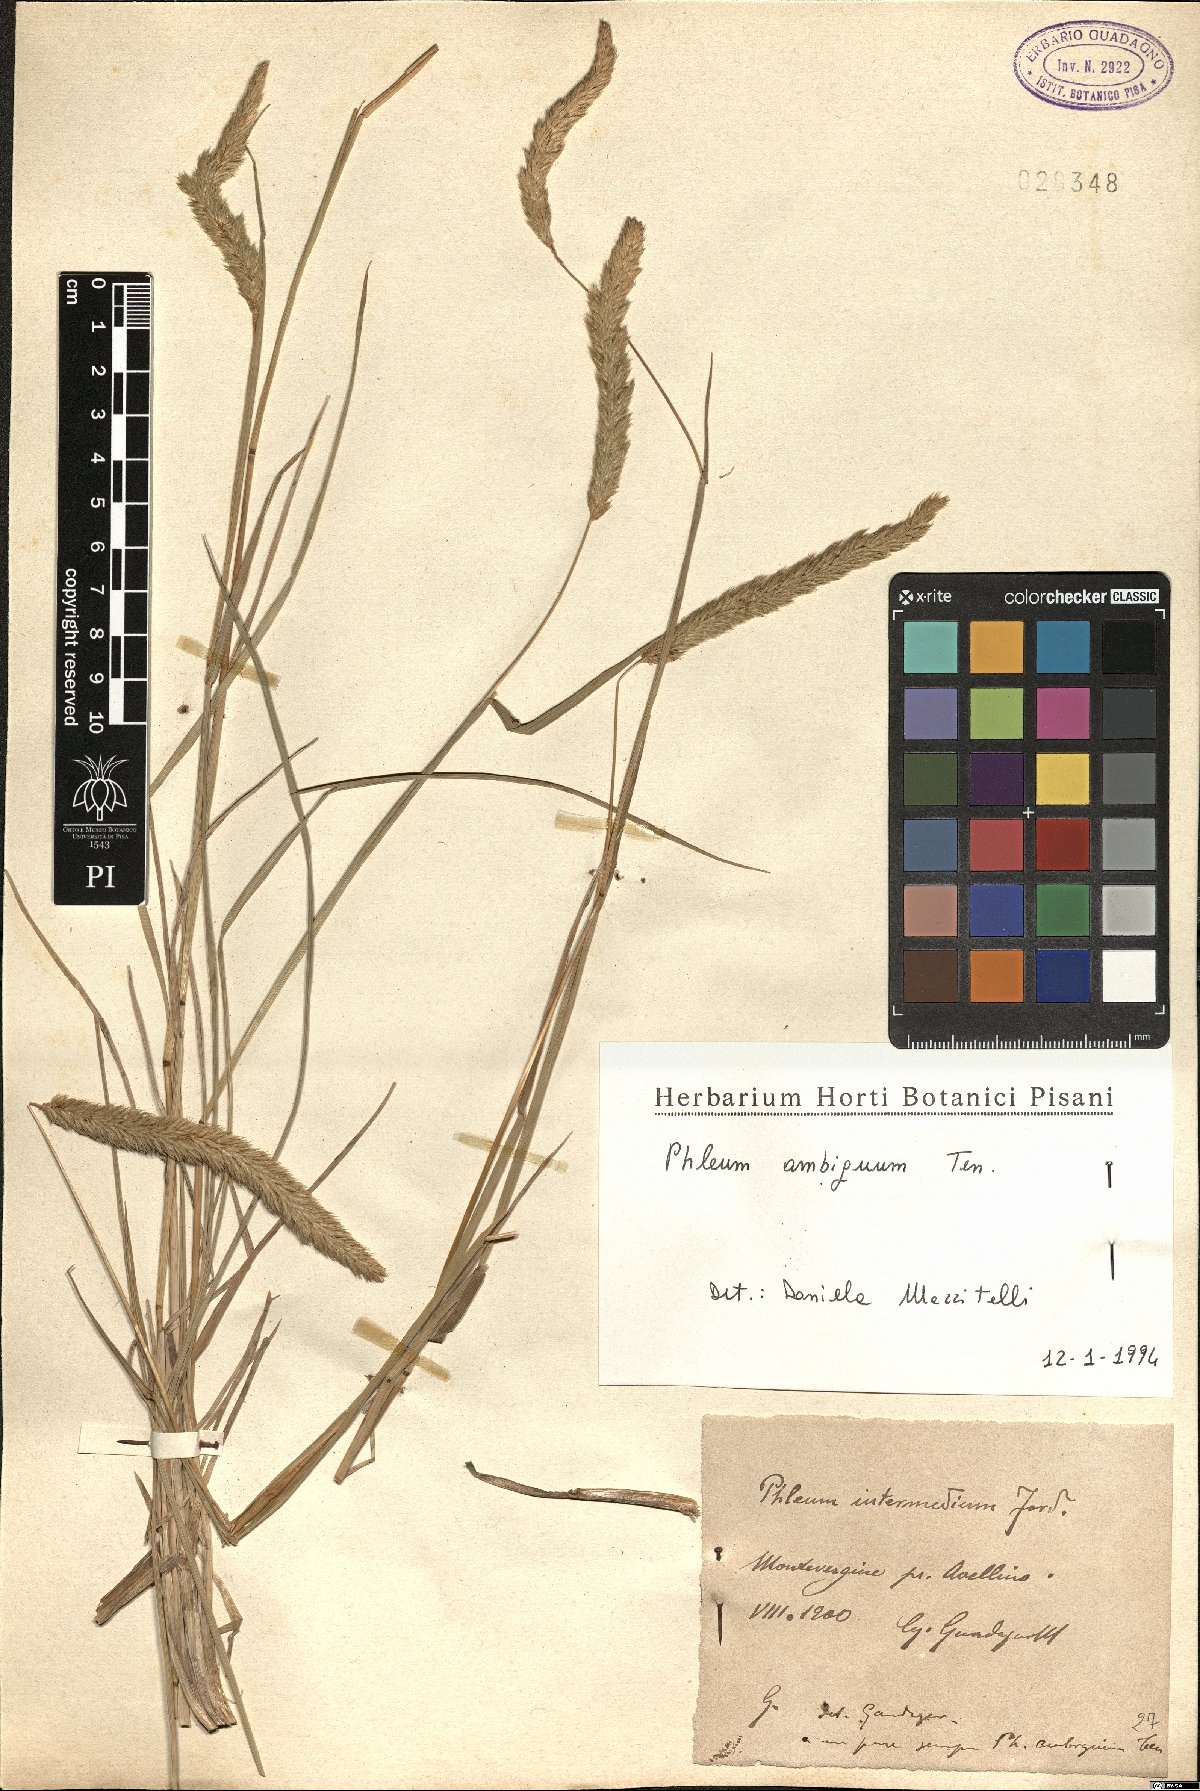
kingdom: Plantae
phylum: Tracheophyta
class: Liliopsida
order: Poales
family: Poaceae
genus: Phleum
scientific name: Phleum hirsutum
